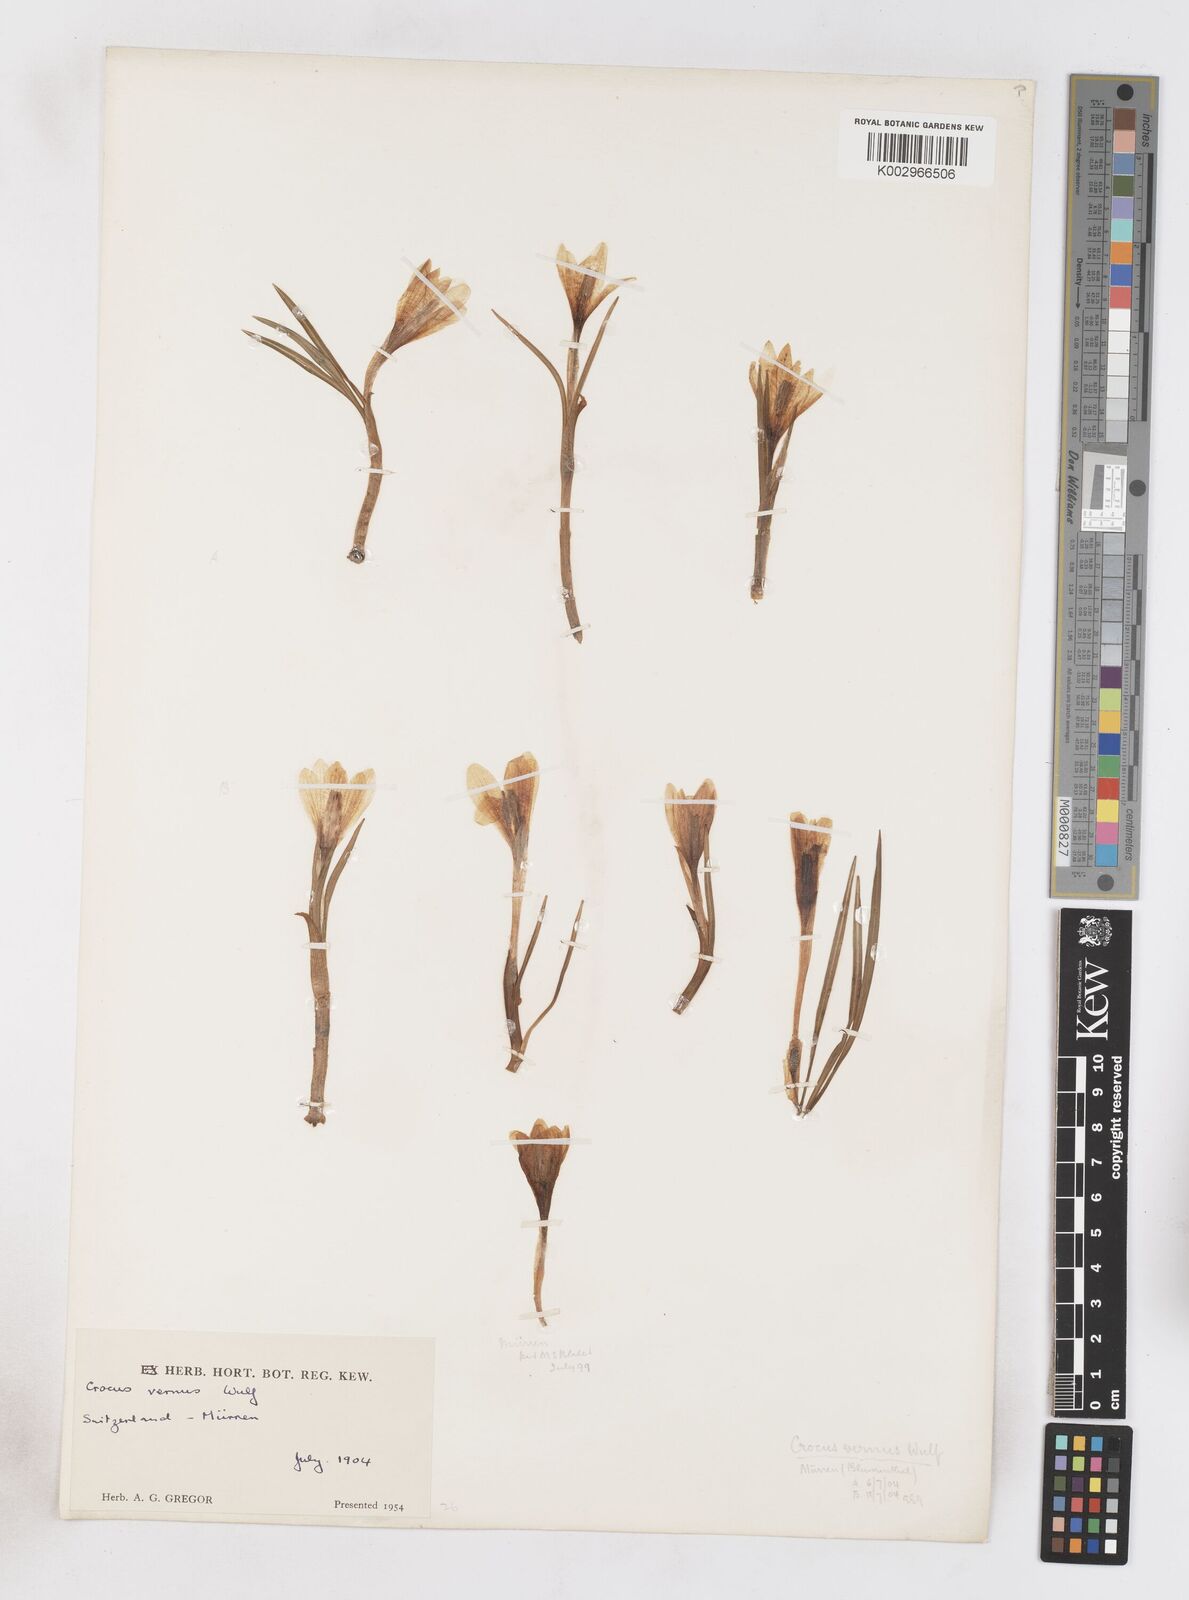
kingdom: Plantae
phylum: Tracheophyta
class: Liliopsida
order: Asparagales
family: Iridaceae
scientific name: Iridaceae
